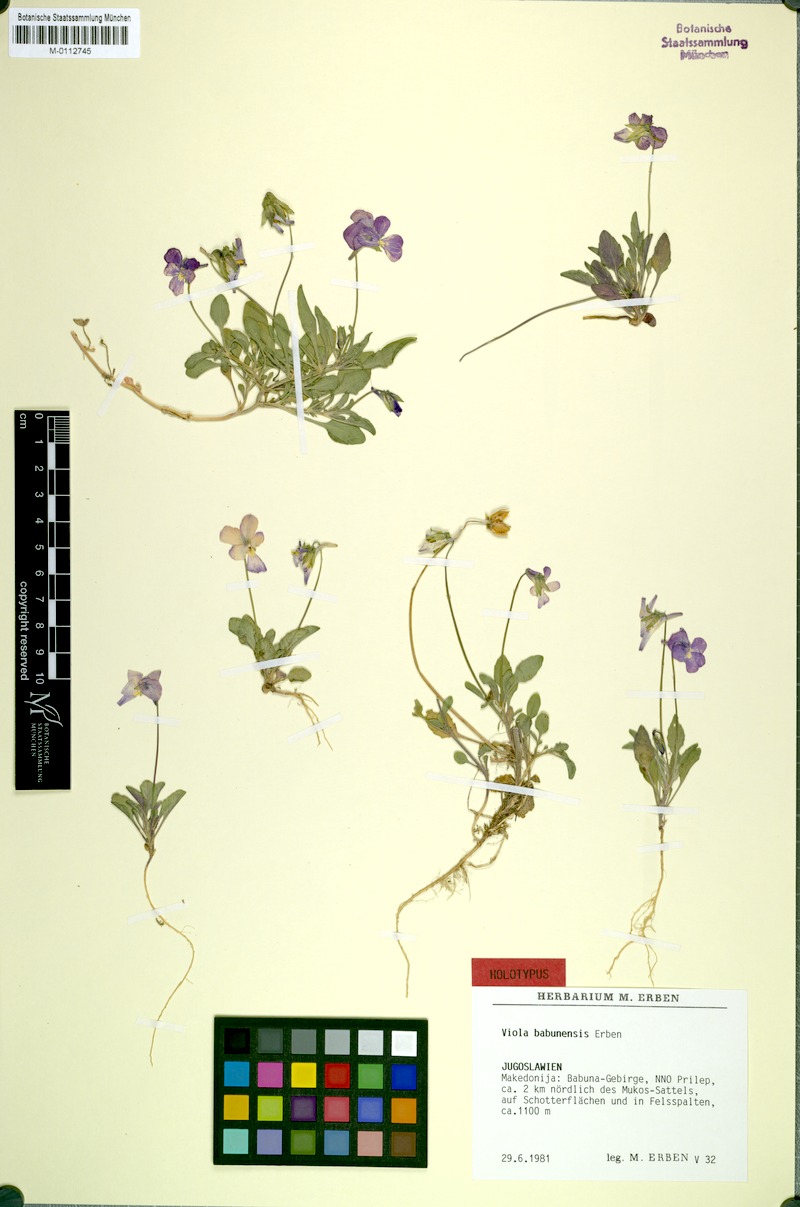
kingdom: Plantae
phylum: Tracheophyta
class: Magnoliopsida
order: Malpighiales
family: Violaceae
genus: Viola
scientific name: Viola babunensis
